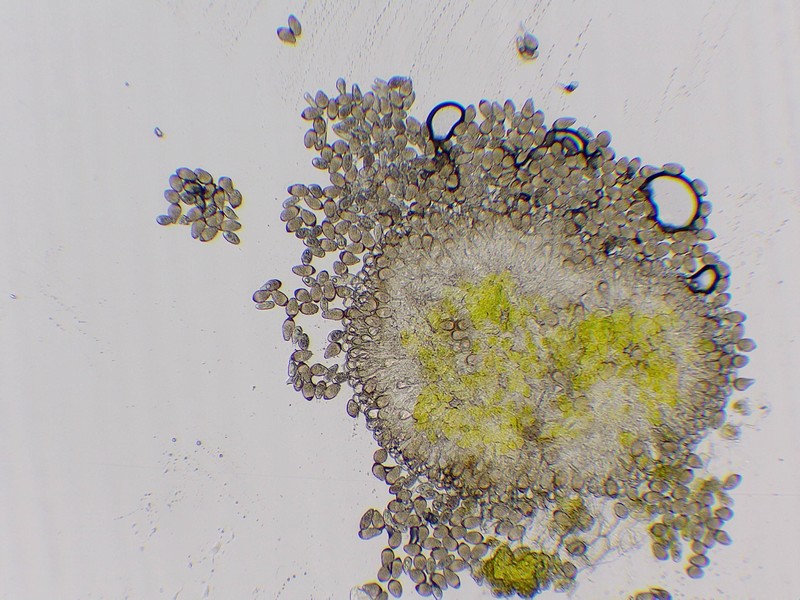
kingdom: Fungi
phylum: Basidiomycota
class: Pucciniomycetes
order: Pucciniales
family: Tranzscheliaceae
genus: Tranzschelia
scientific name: Tranzschelia pruni-spinosae
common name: Blackthorn rust
